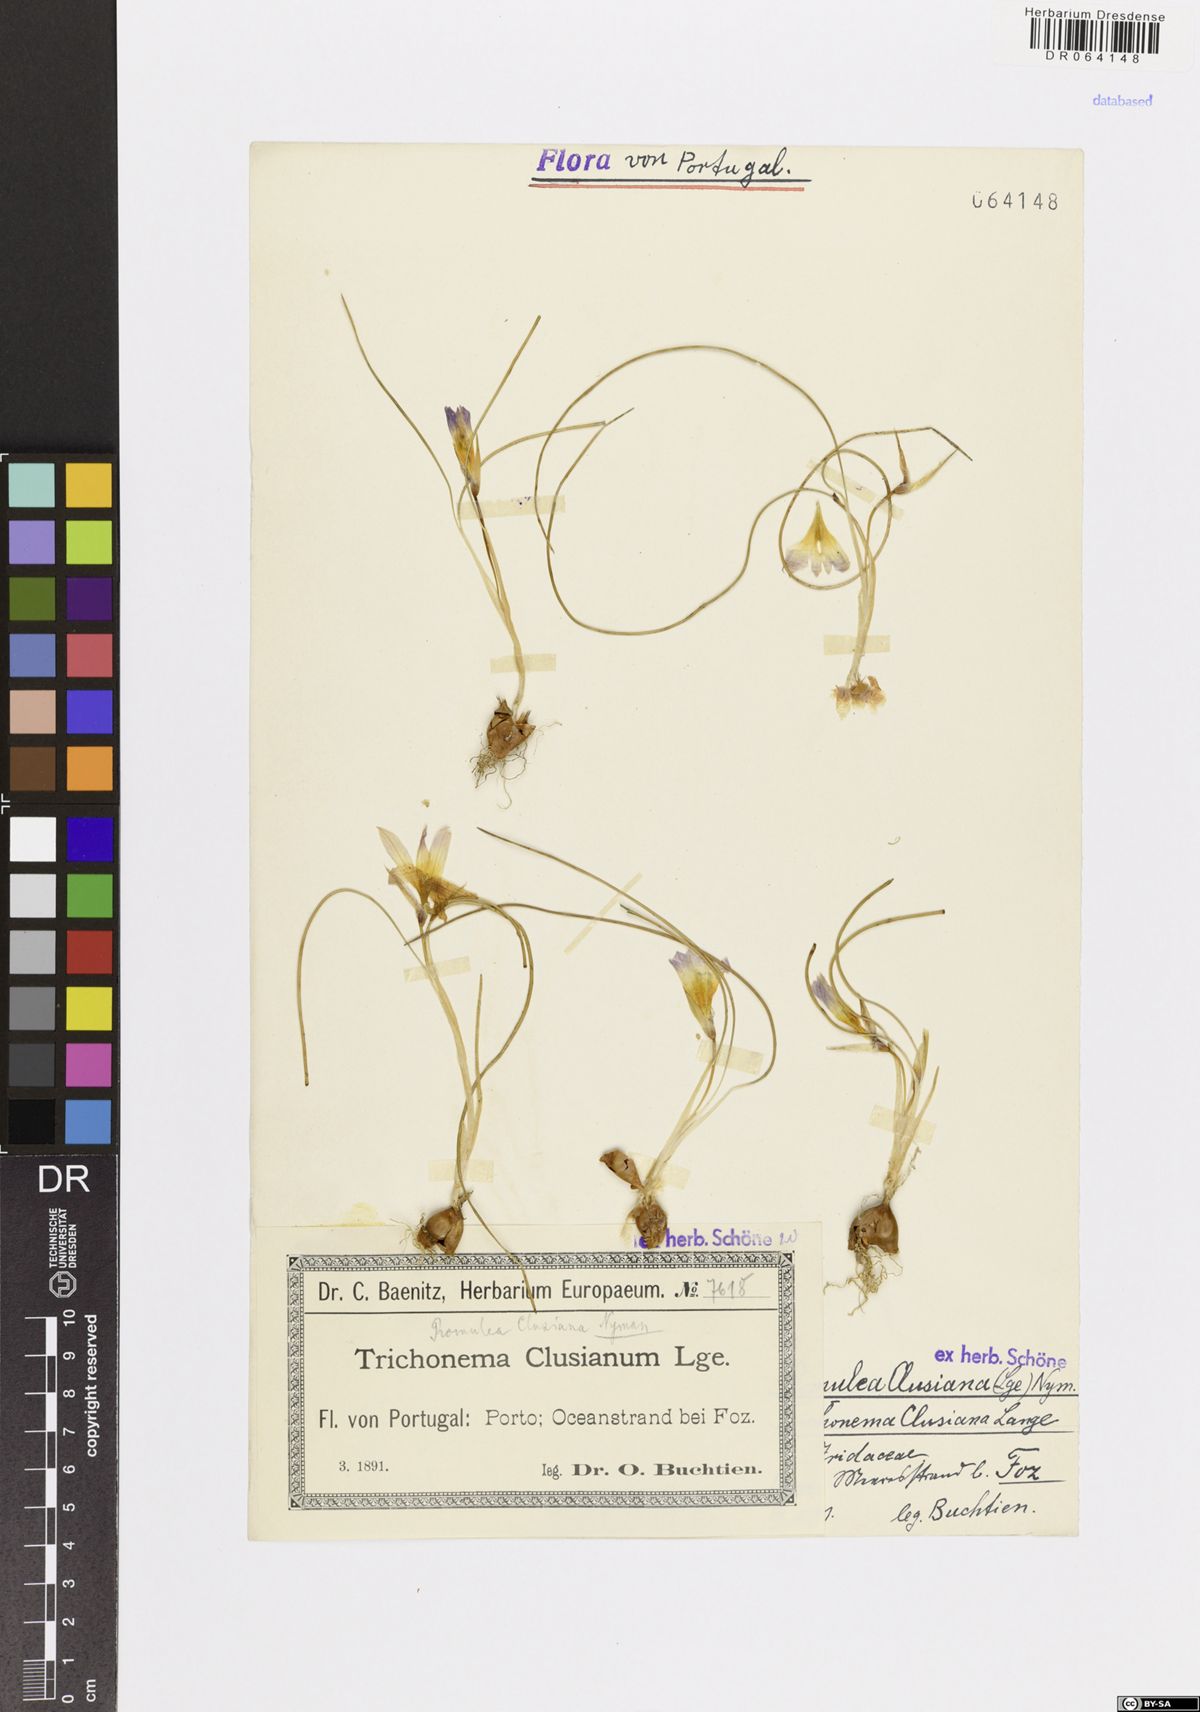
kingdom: Plantae
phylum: Tracheophyta
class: Liliopsida
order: Asparagales
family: Iridaceae
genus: Romulea
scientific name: Romulea clusiana
